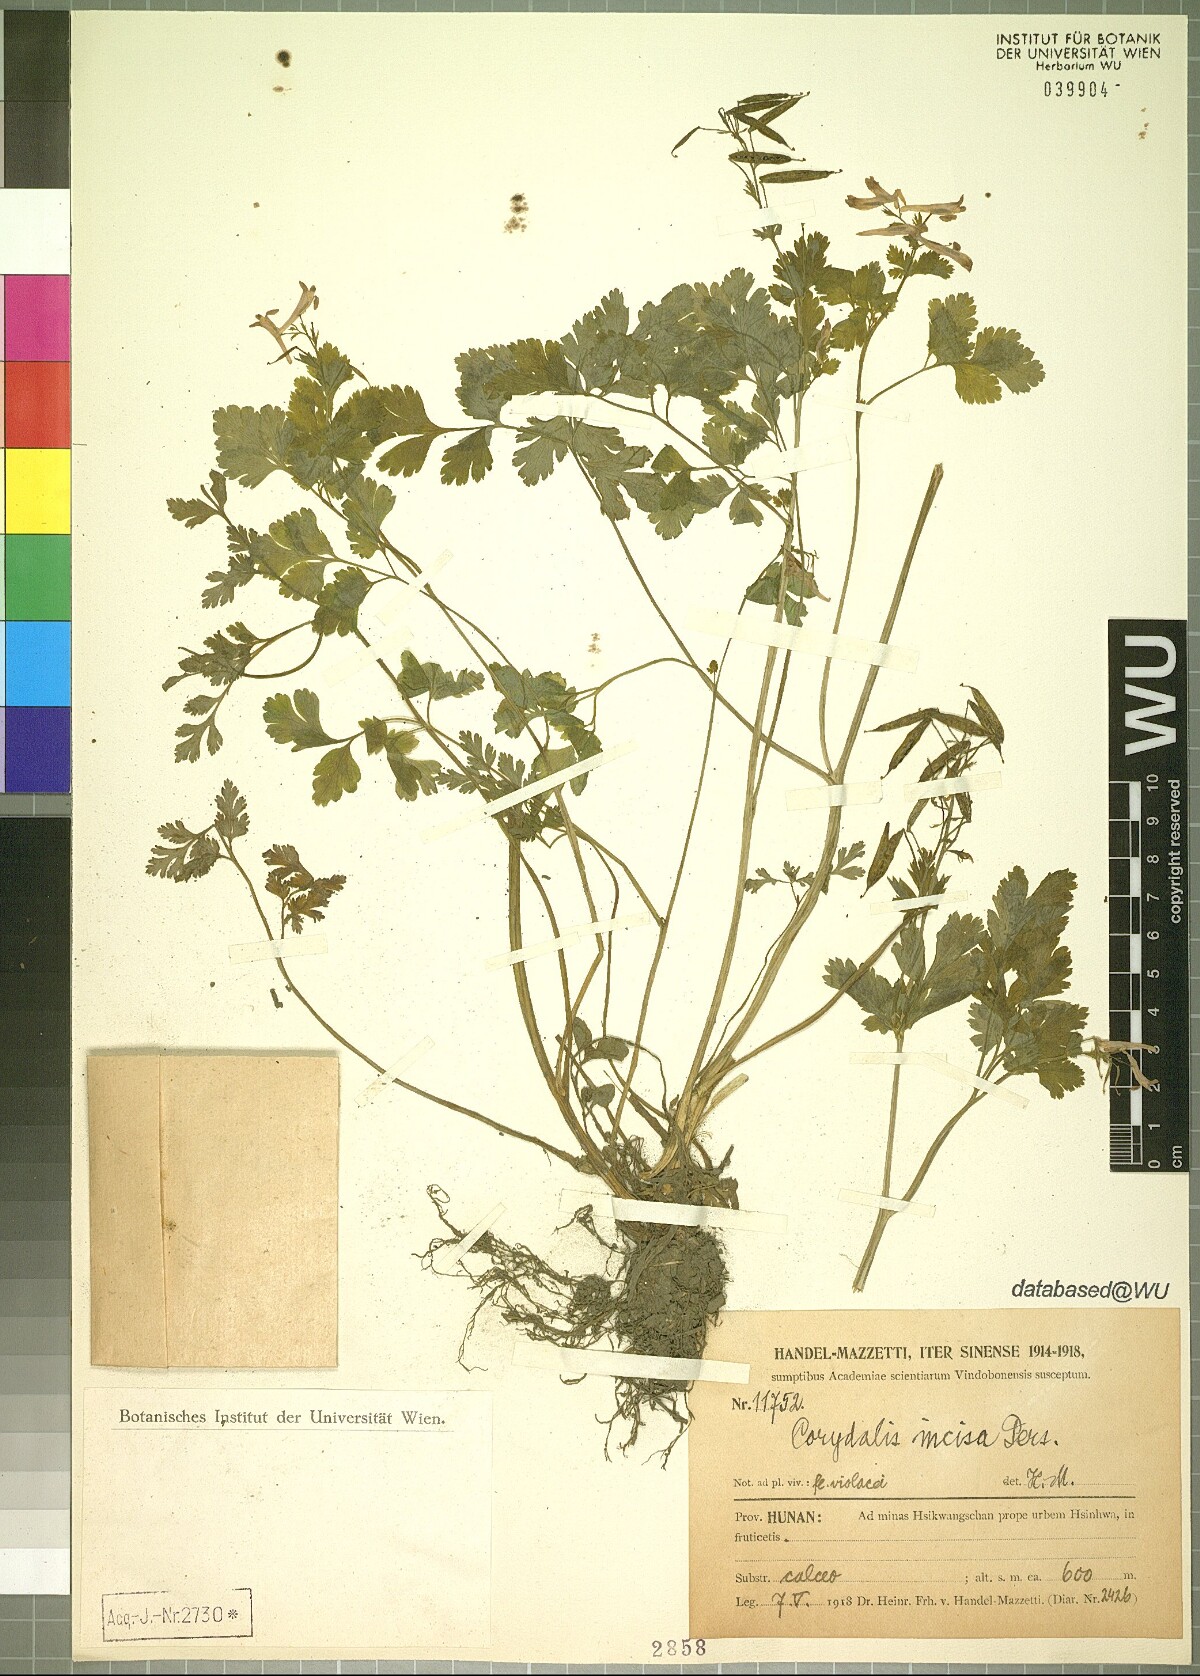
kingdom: Plantae
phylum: Tracheophyta
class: Magnoliopsida
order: Ranunculales
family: Papaveraceae
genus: Corydalis
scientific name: Corydalis incisa
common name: Incised fumewort
